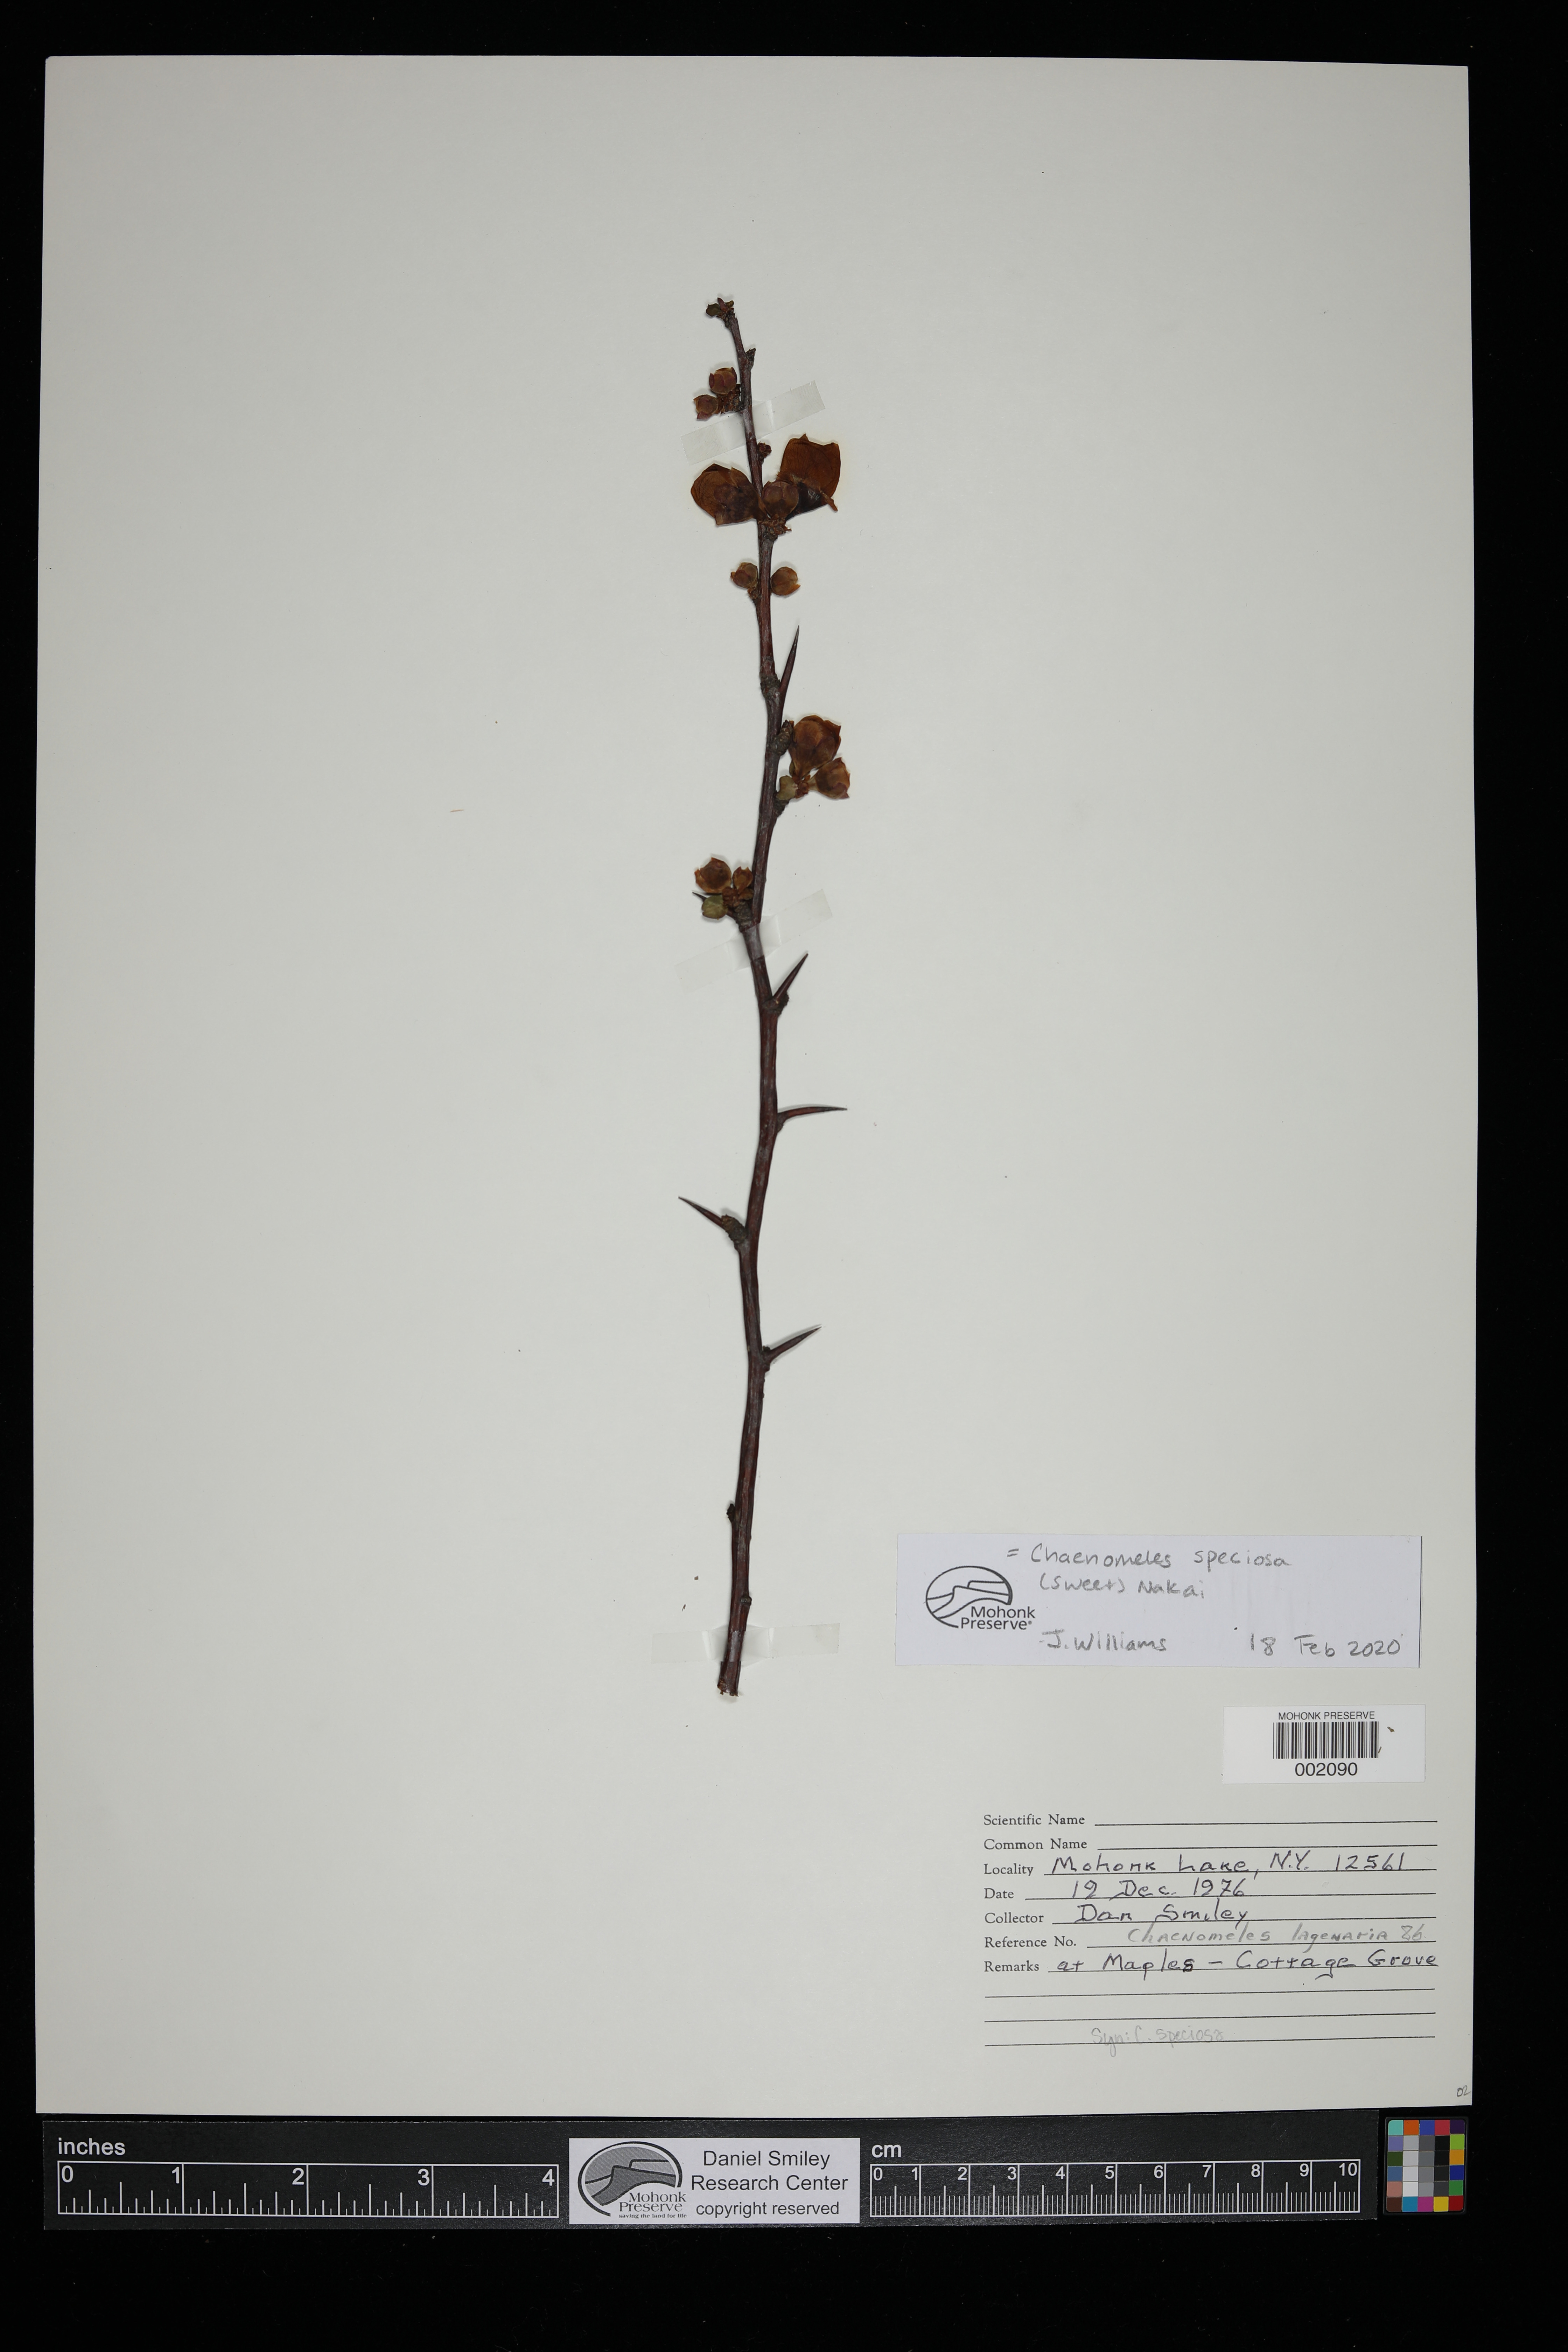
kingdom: Plantae
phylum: Tracheophyta
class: Magnoliopsida
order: Rosales
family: Rosaceae
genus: Chaenomeles
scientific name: Chaenomeles speciosa
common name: Japanese quince
